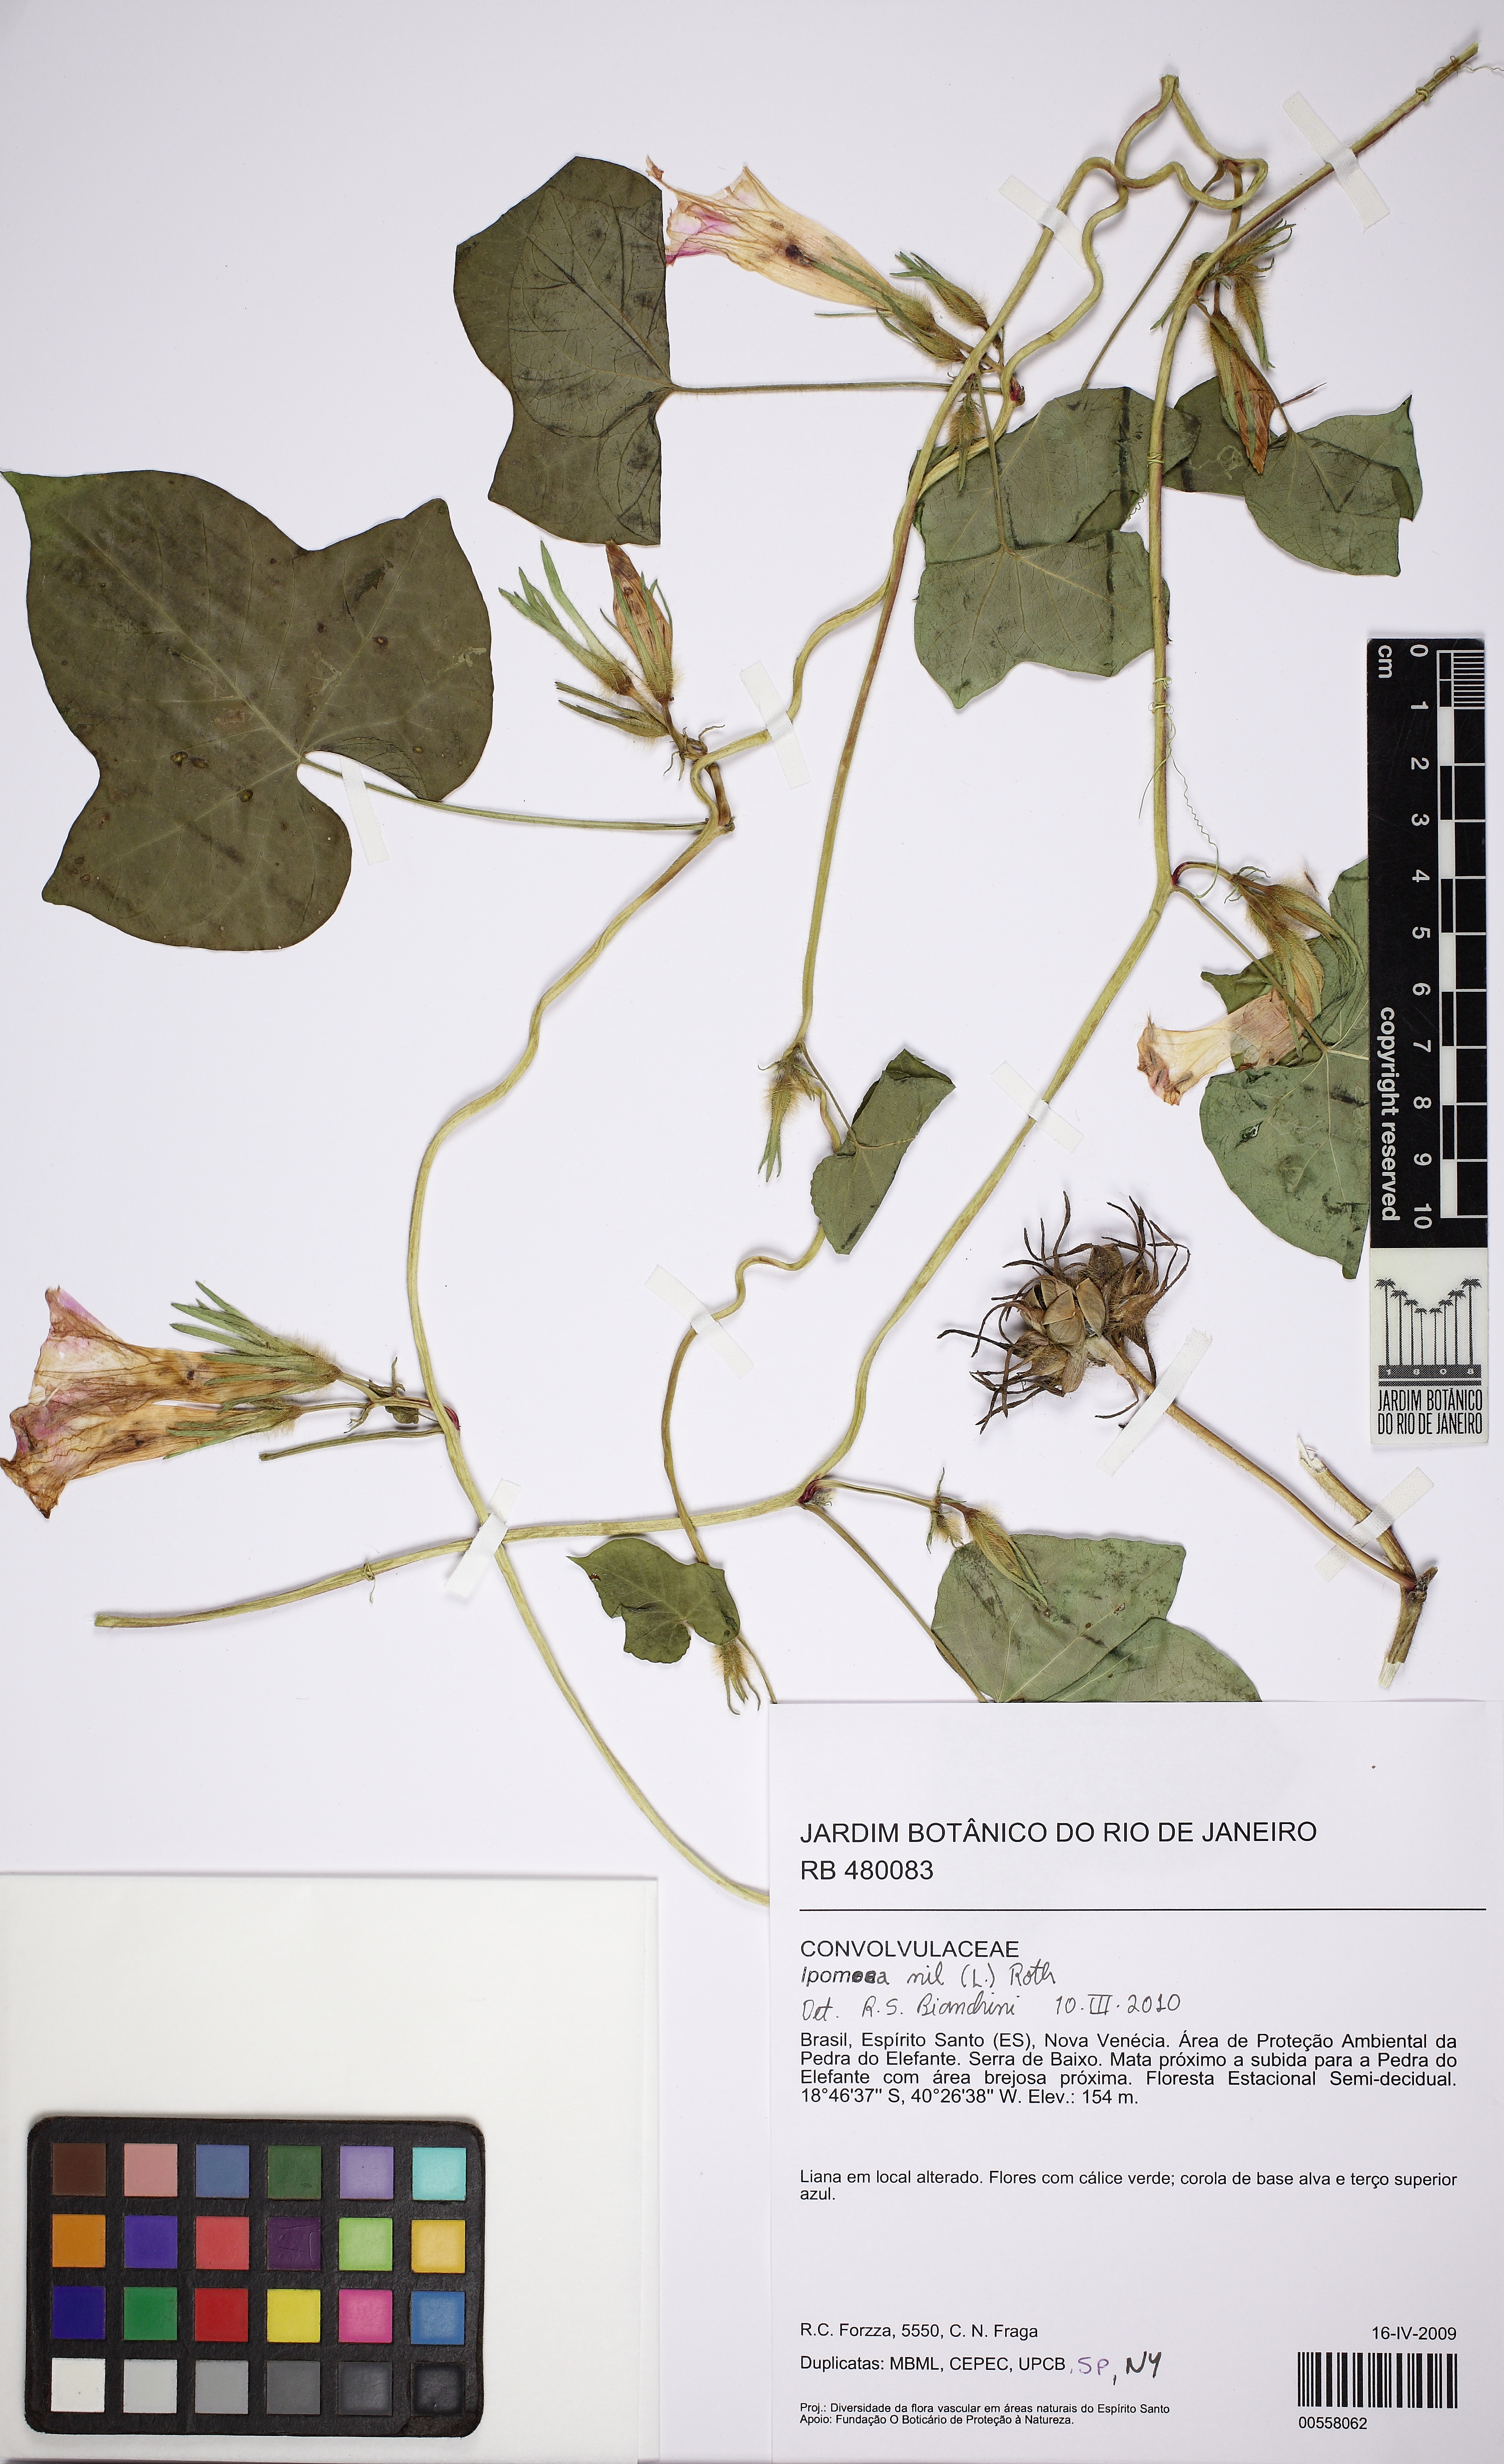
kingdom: Plantae
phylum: Tracheophyta
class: Magnoliopsida
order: Solanales
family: Convolvulaceae
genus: Ipomoea
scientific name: Ipomoea nil
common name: Japanese morning-glory
